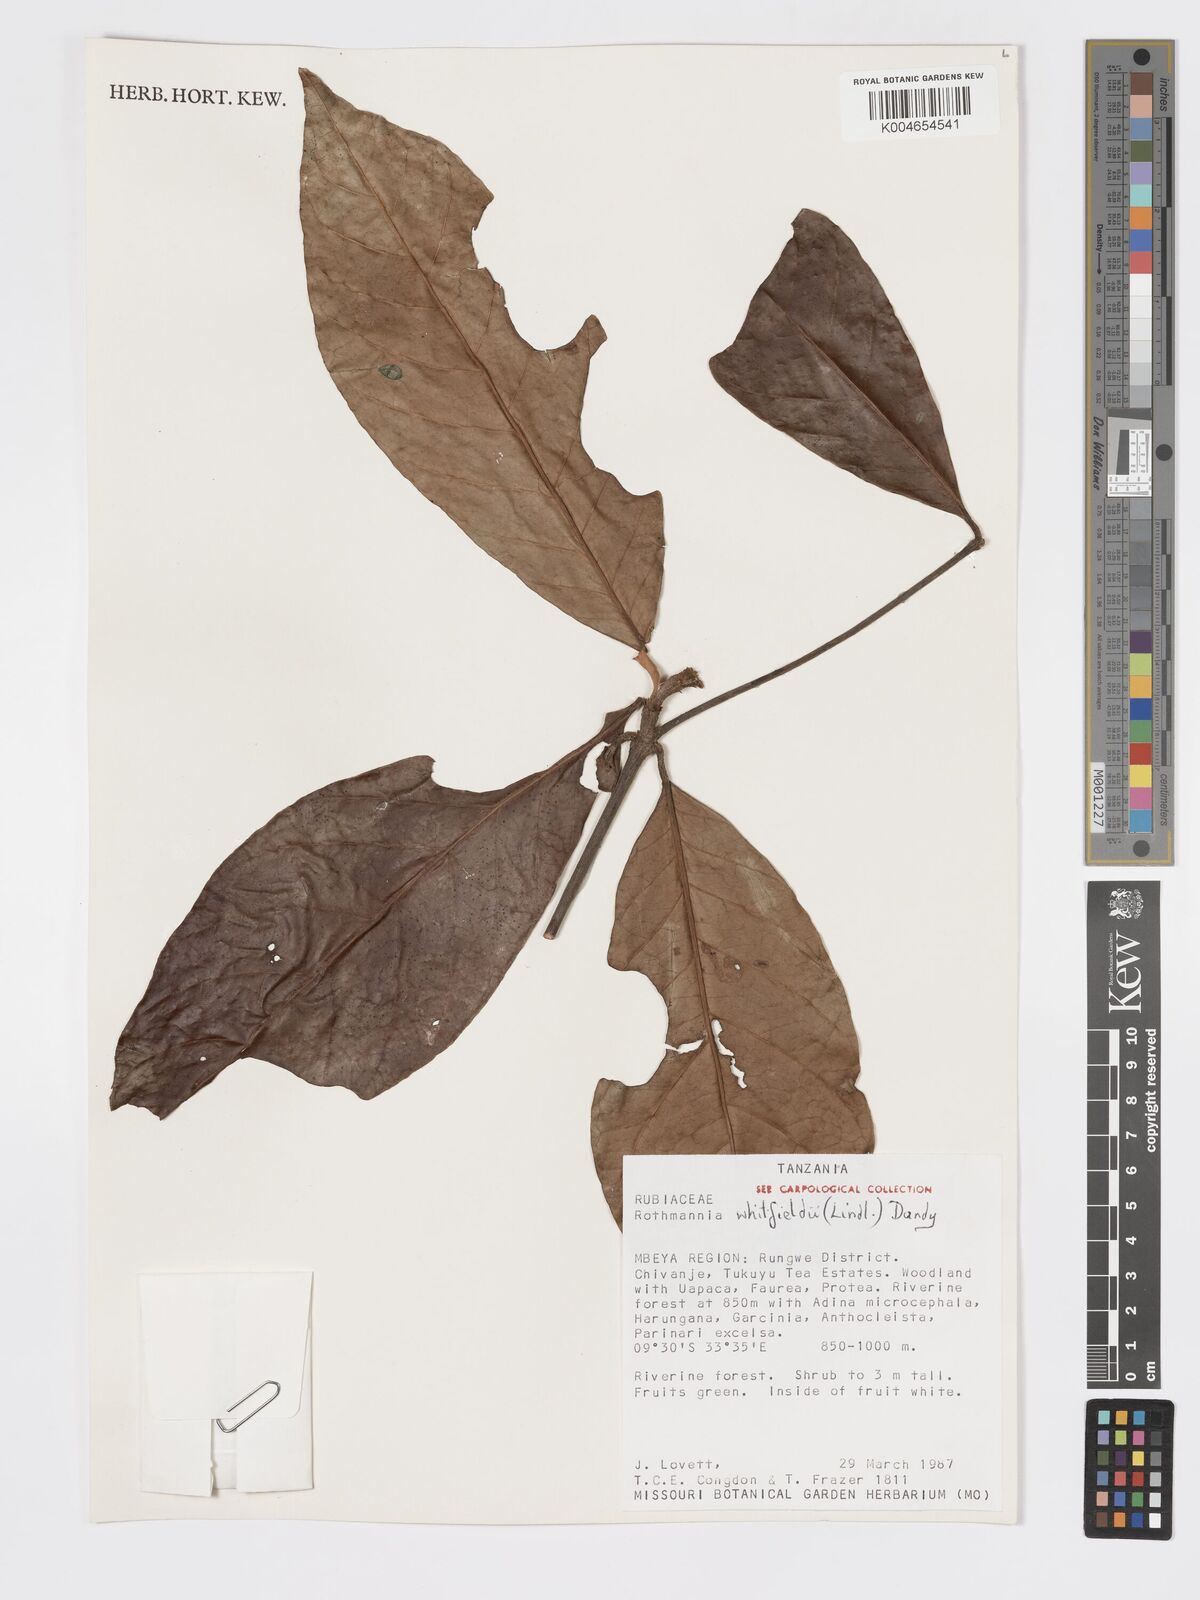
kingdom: Plantae
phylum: Tracheophyta
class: Magnoliopsida
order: Gentianales
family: Rubiaceae
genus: Rothmannia
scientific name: Rothmannia whitfieldii
